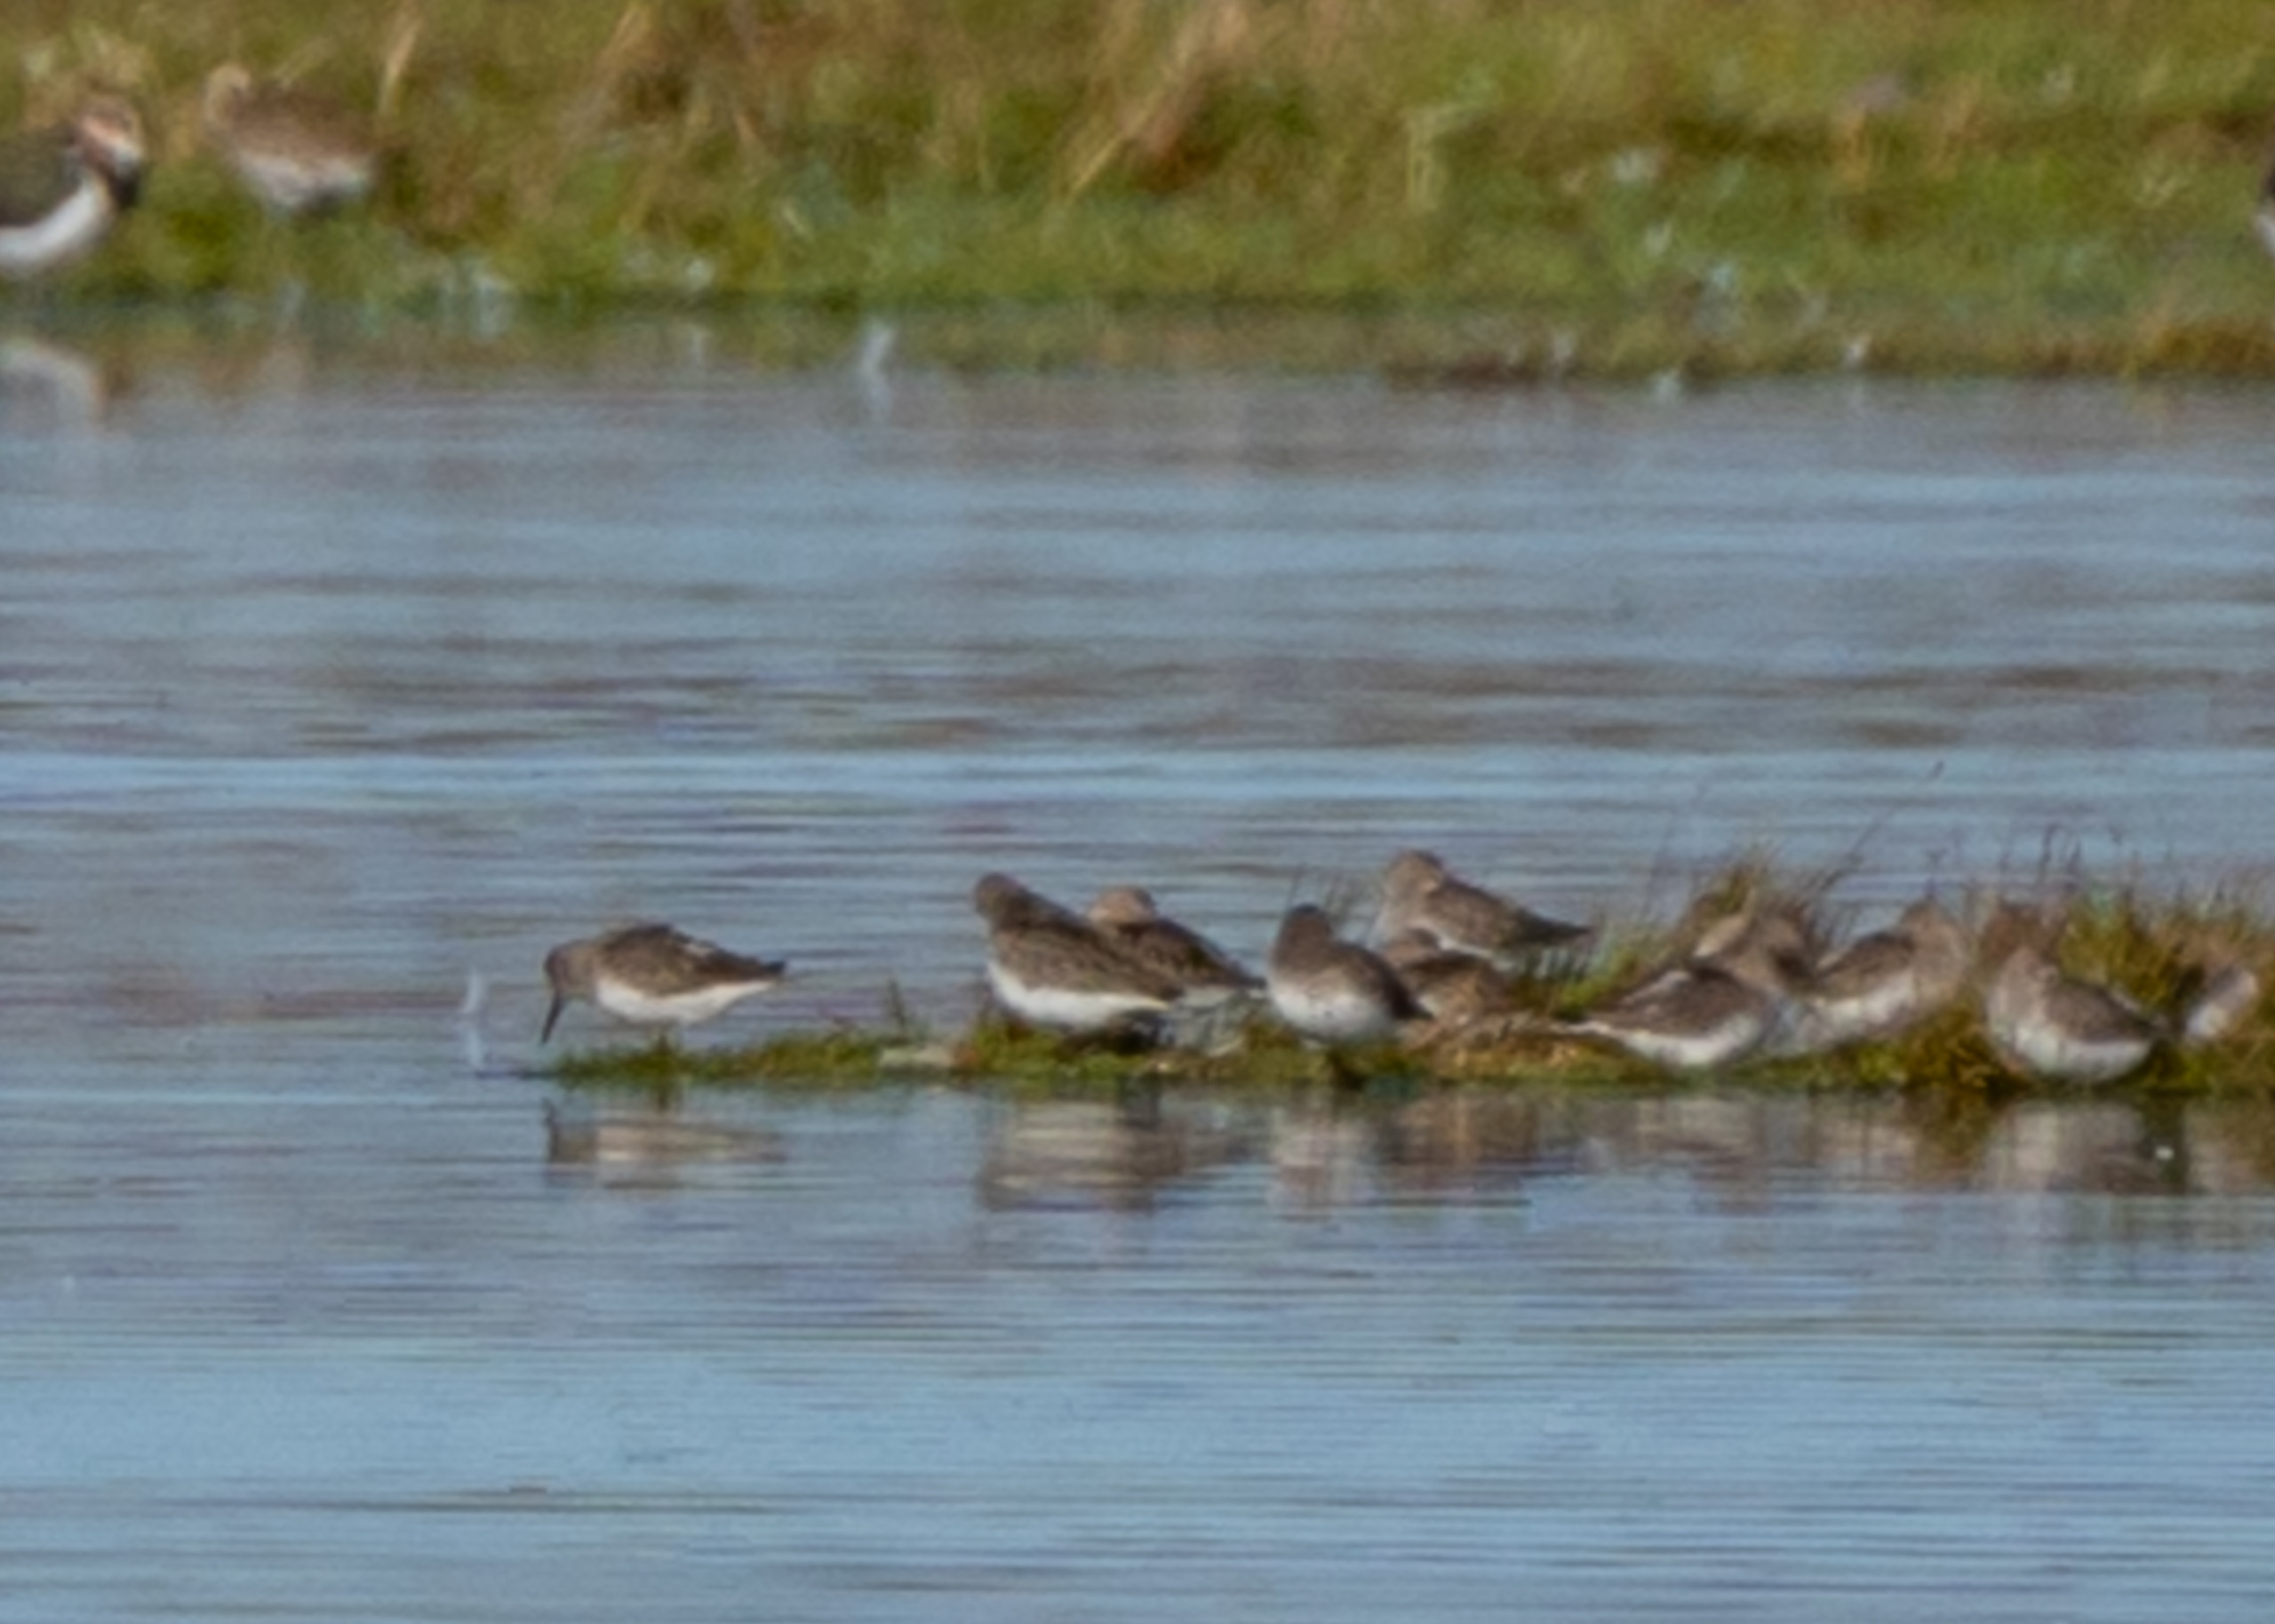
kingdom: Animalia
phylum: Chordata
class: Aves
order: Charadriiformes
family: Scolopacidae
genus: Calidris
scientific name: Calidris alpina
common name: Almindelig ryle
